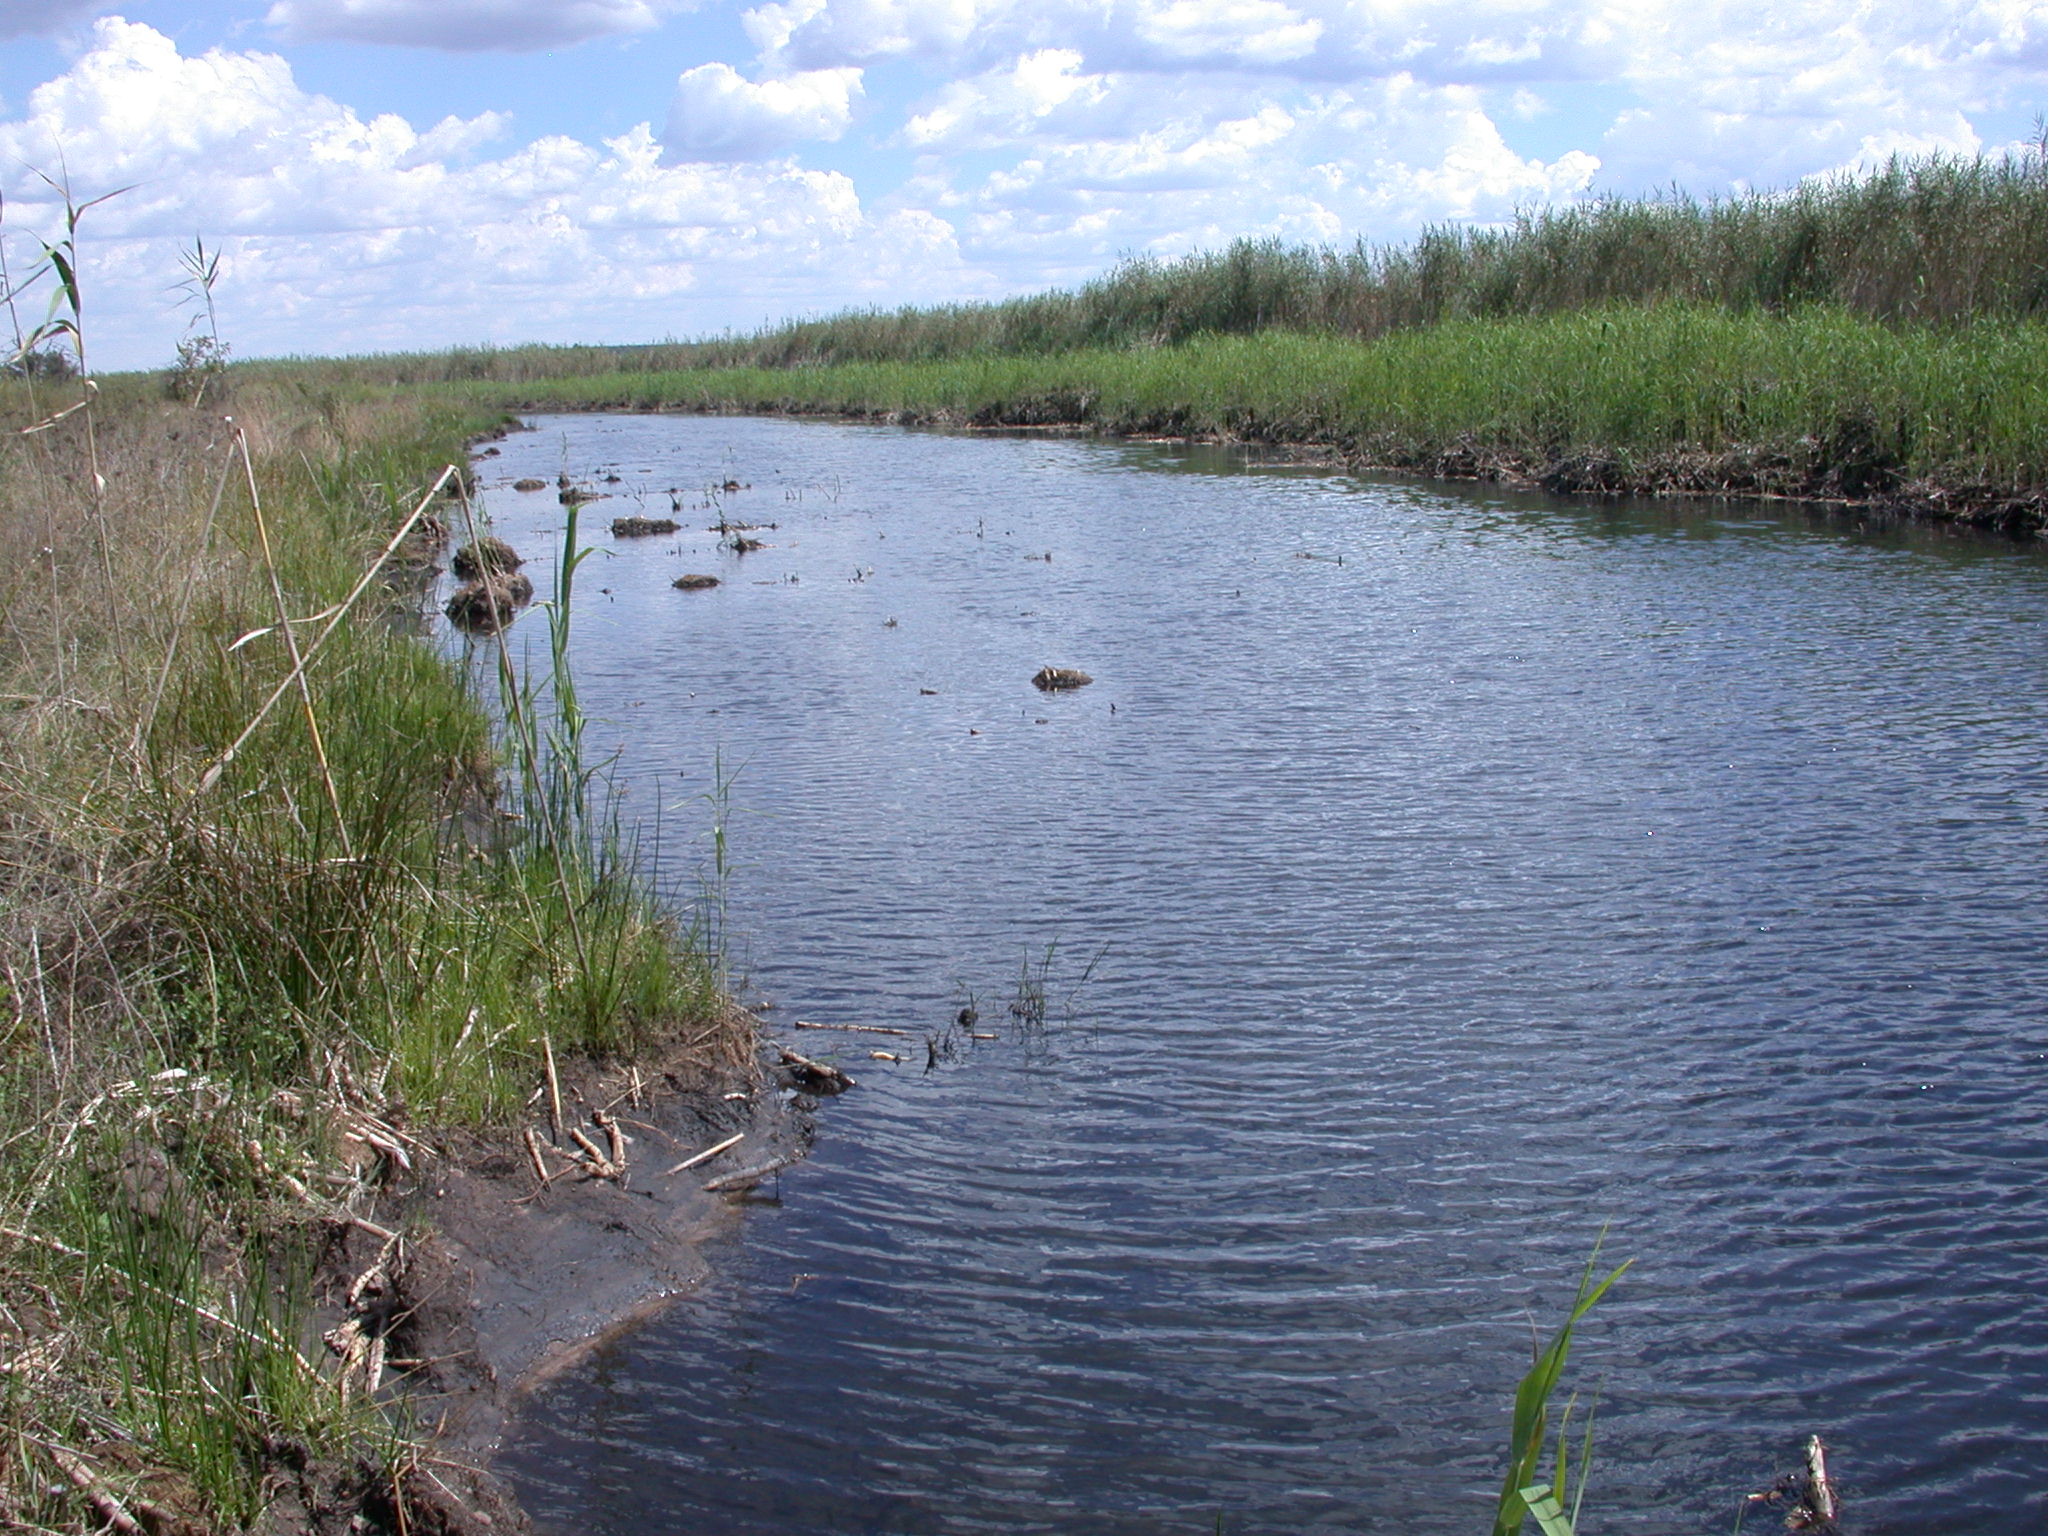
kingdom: Animalia
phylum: Chordata
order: Cyprinodontiformes
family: Poeciliidae
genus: Gambusia
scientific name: Gambusia affinis
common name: Mosquitofish
